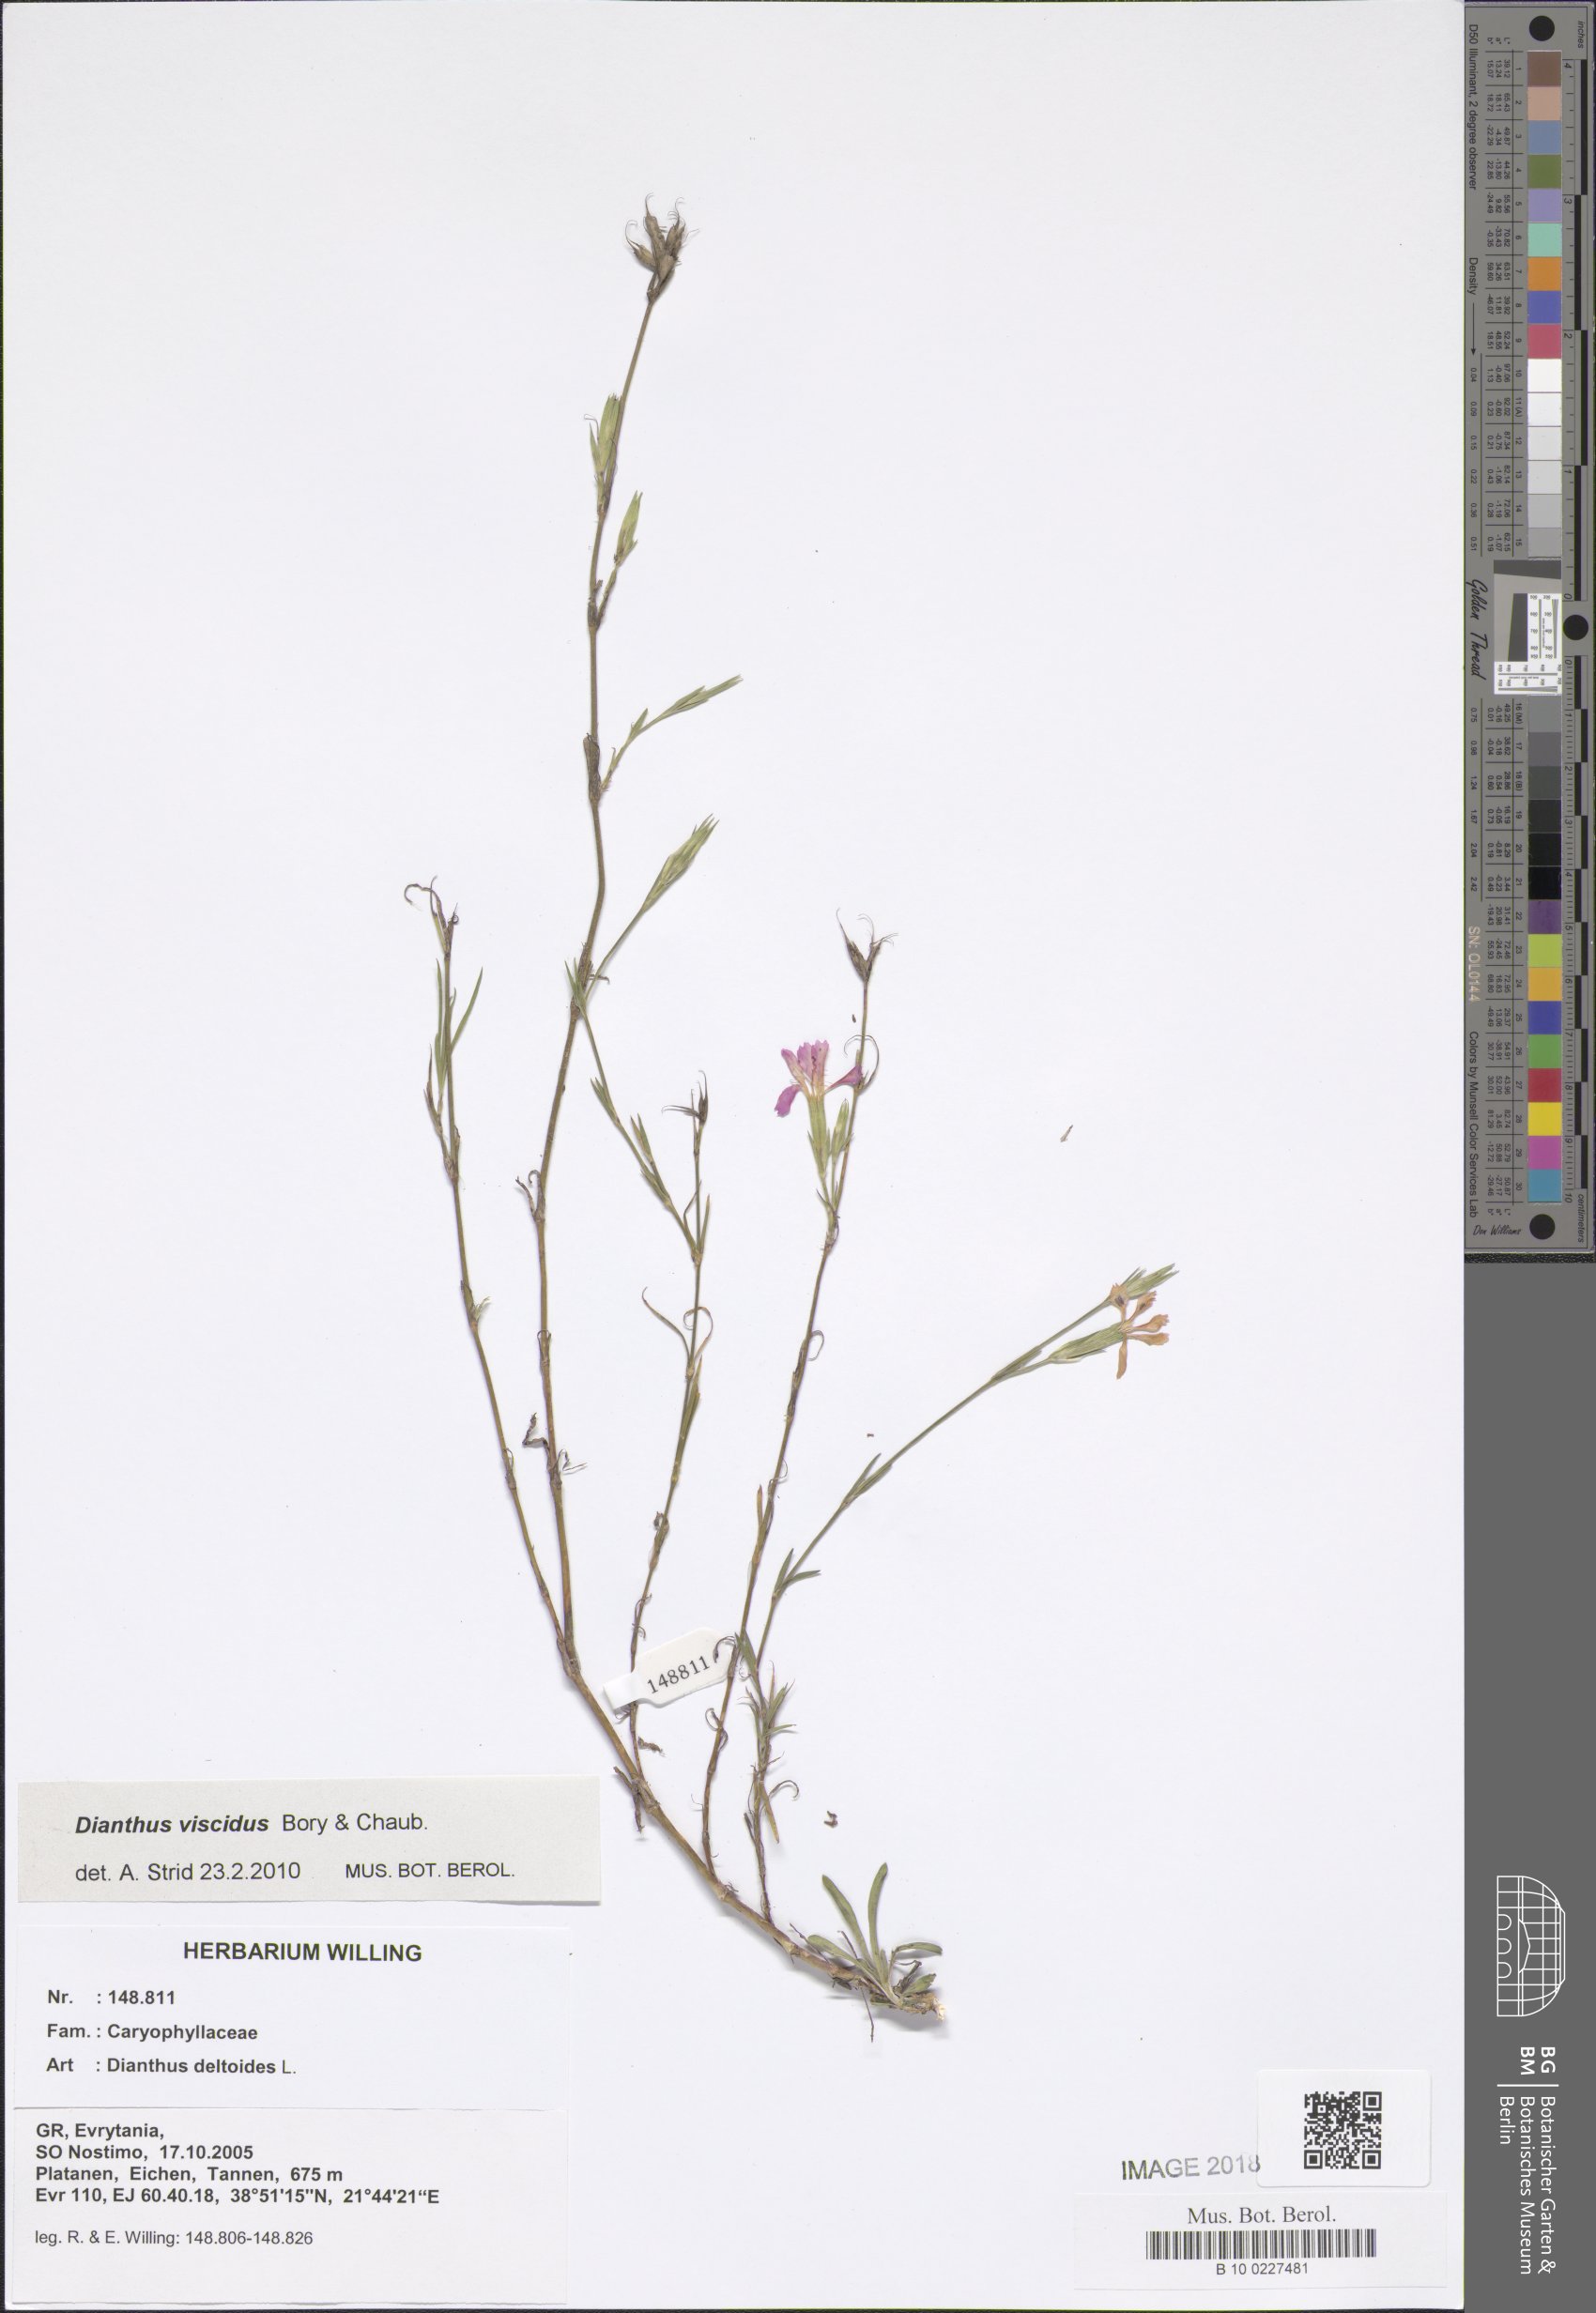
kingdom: Plantae
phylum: Tracheophyta
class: Magnoliopsida
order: Caryophyllales
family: Caryophyllaceae
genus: Dianthus
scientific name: Dianthus deltoides
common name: Maiden pink
